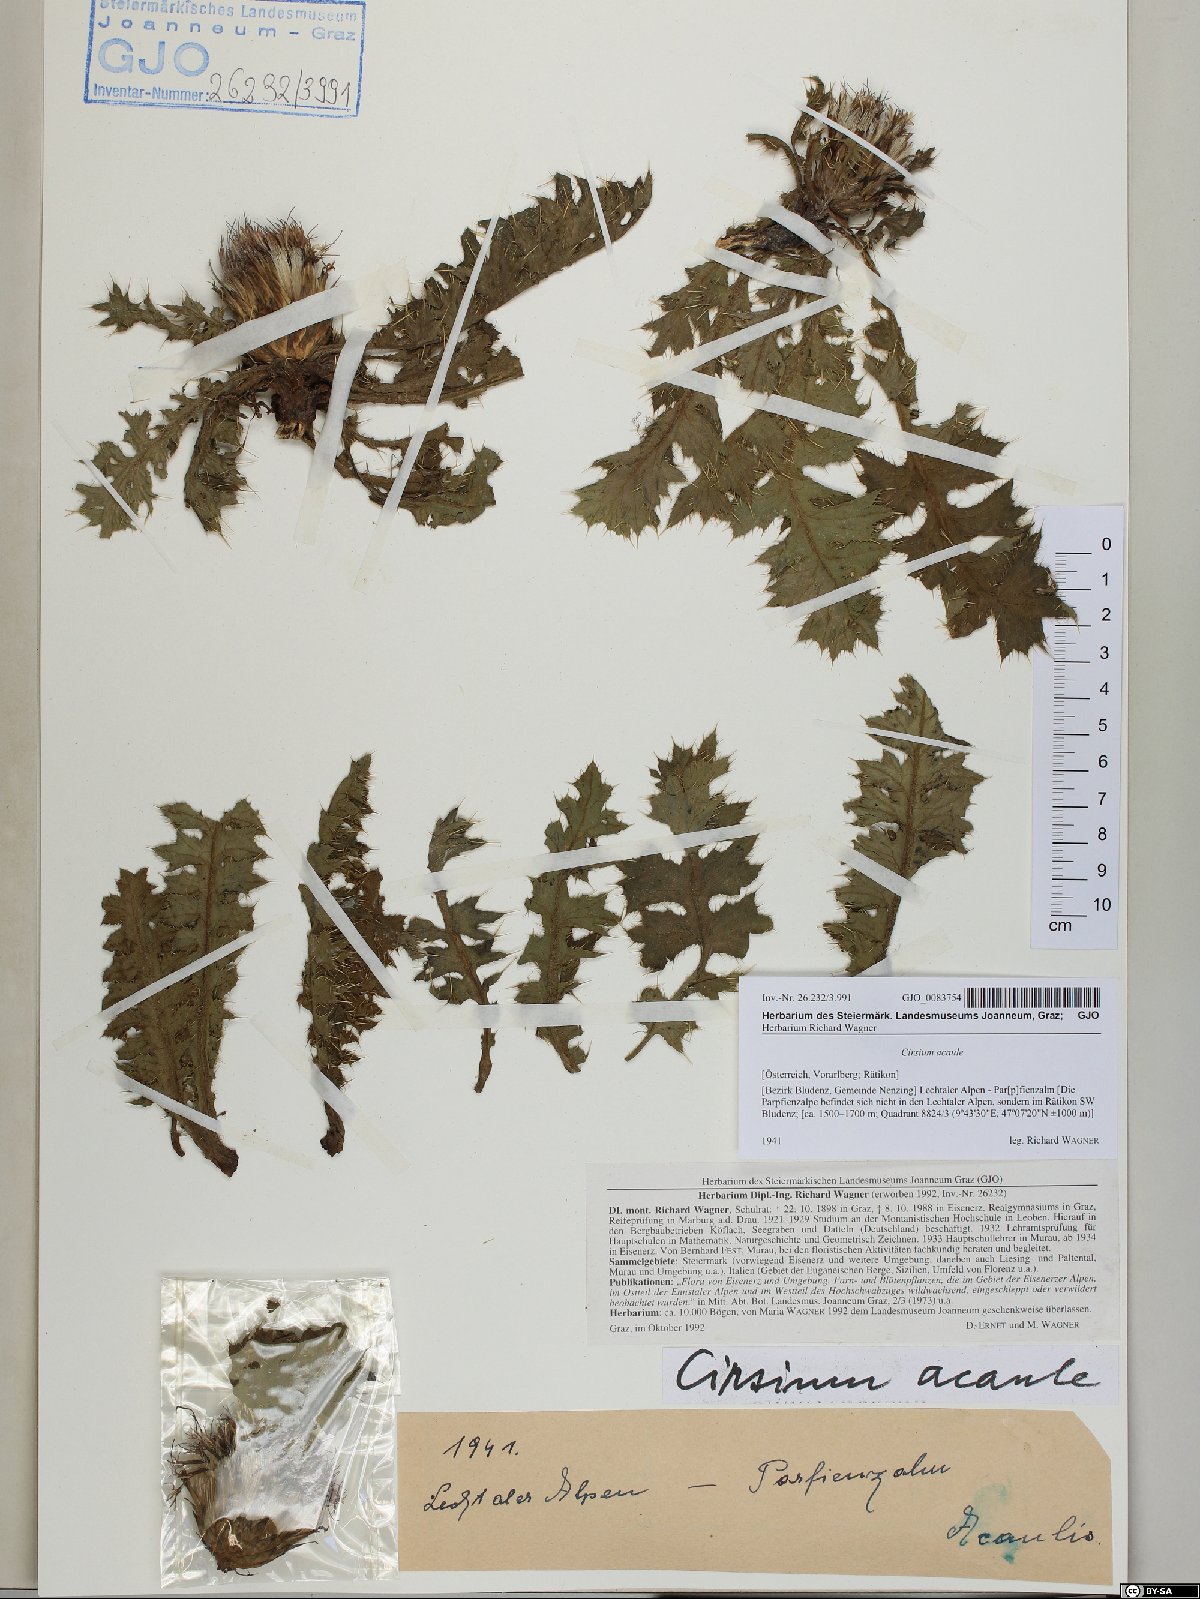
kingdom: Plantae
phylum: Tracheophyta
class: Magnoliopsida
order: Asterales
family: Asteraceae
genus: Cirsium
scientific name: Cirsium acaulon
